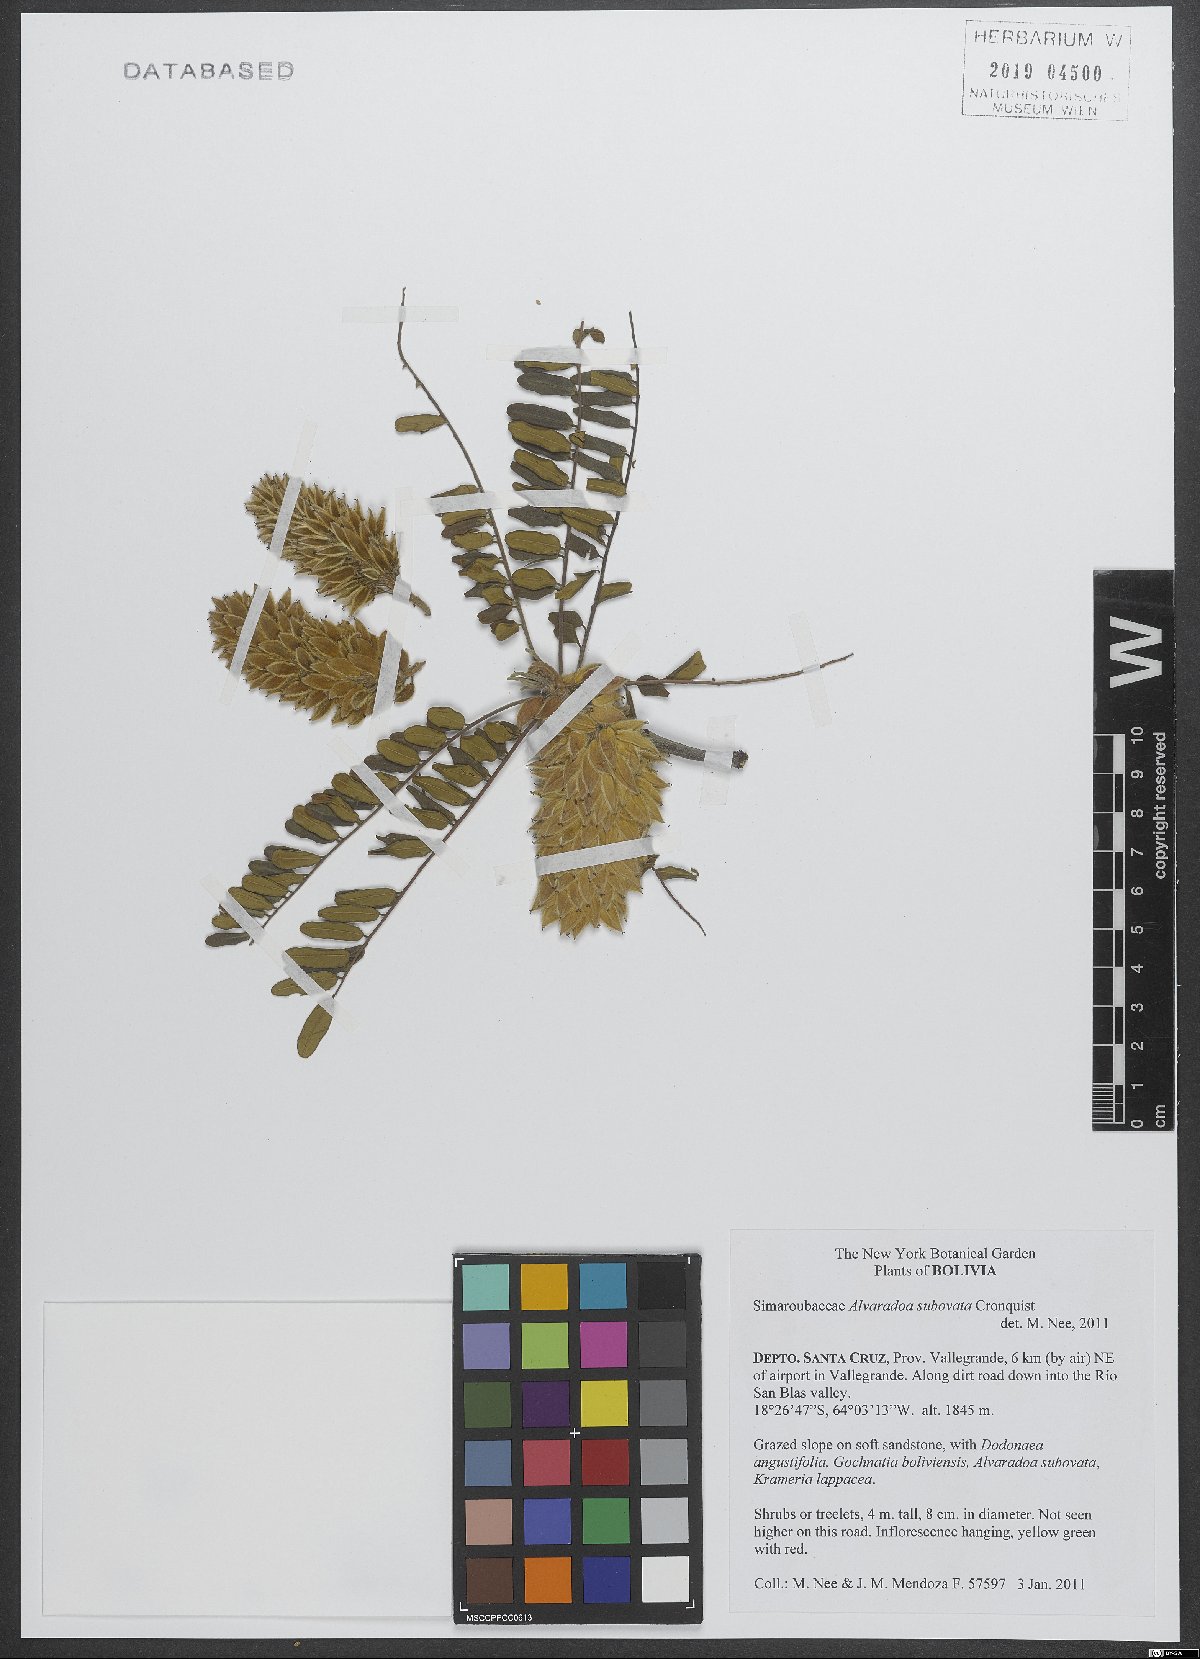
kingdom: Plantae
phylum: Tracheophyta
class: Magnoliopsida
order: Picramniales
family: Picramniaceae
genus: Alvaradoa
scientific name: Alvaradoa subovata
